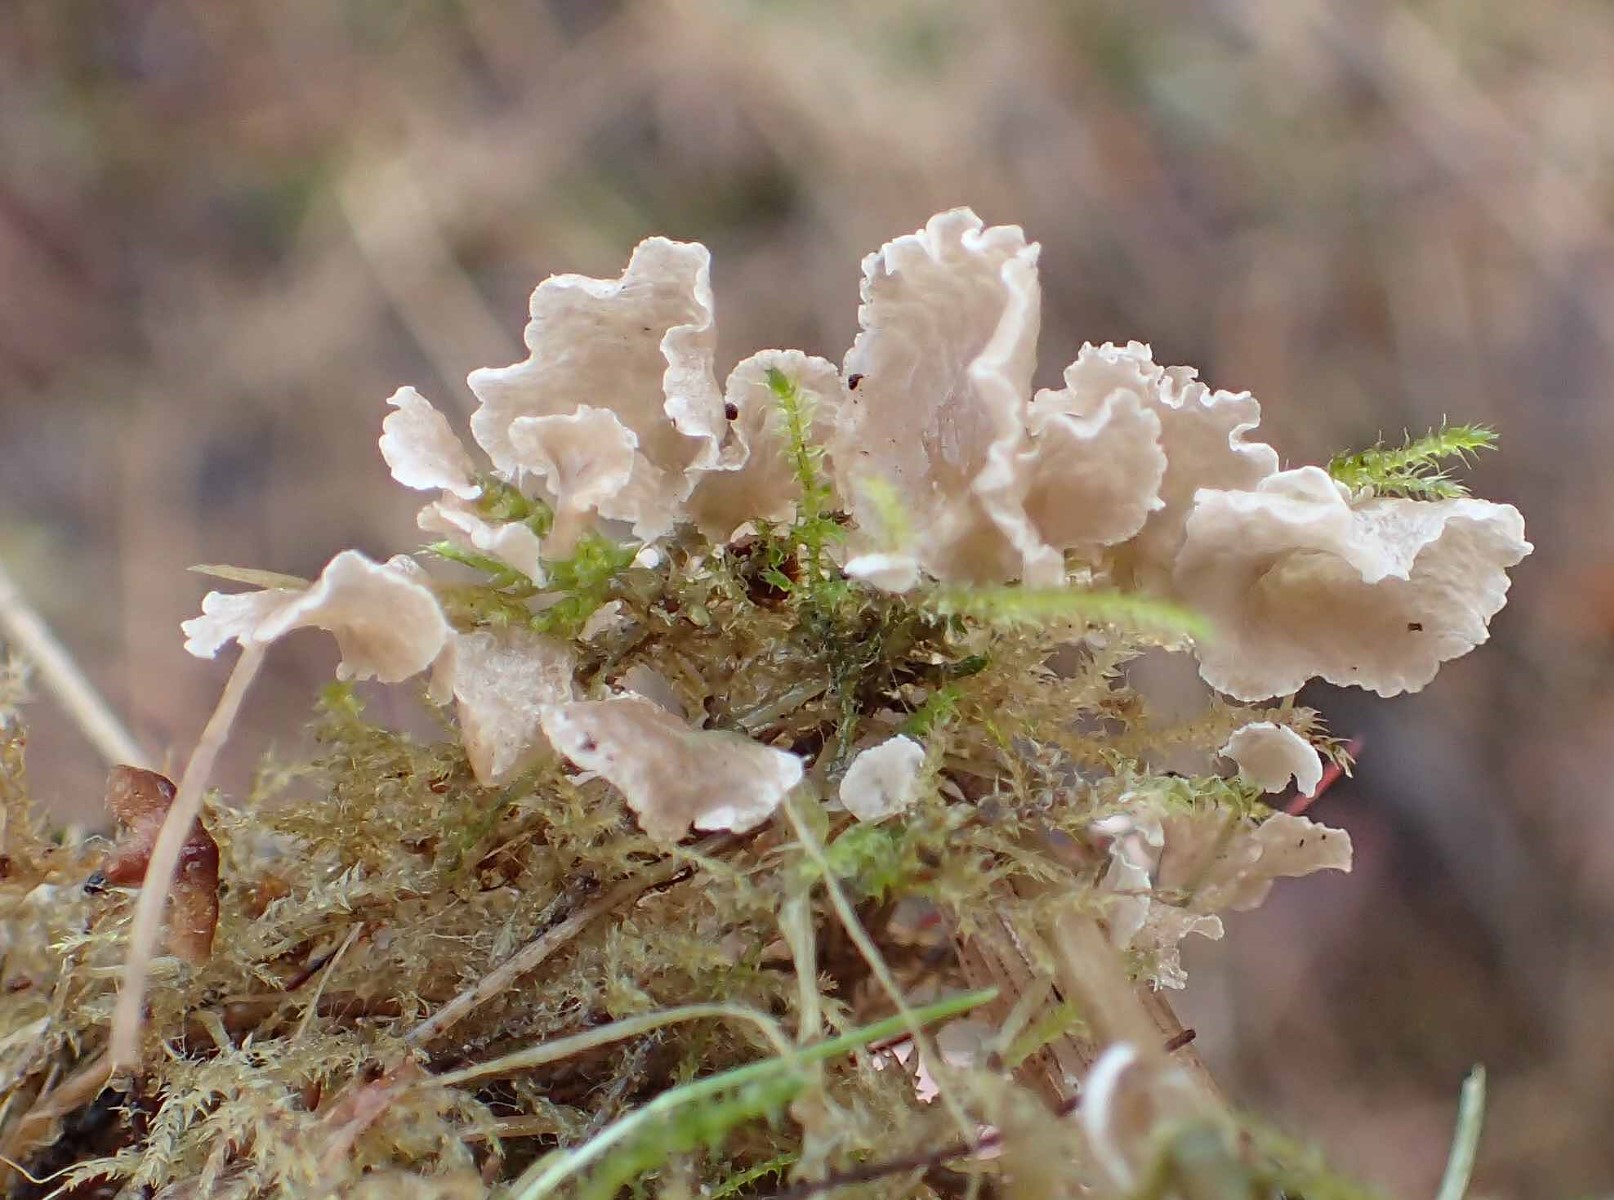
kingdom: Fungi
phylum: Basidiomycota
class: Agaricomycetes
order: Agaricales
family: Hygrophoraceae
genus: Arrhenia
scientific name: Arrhenia retiruga
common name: lille fontænehat
